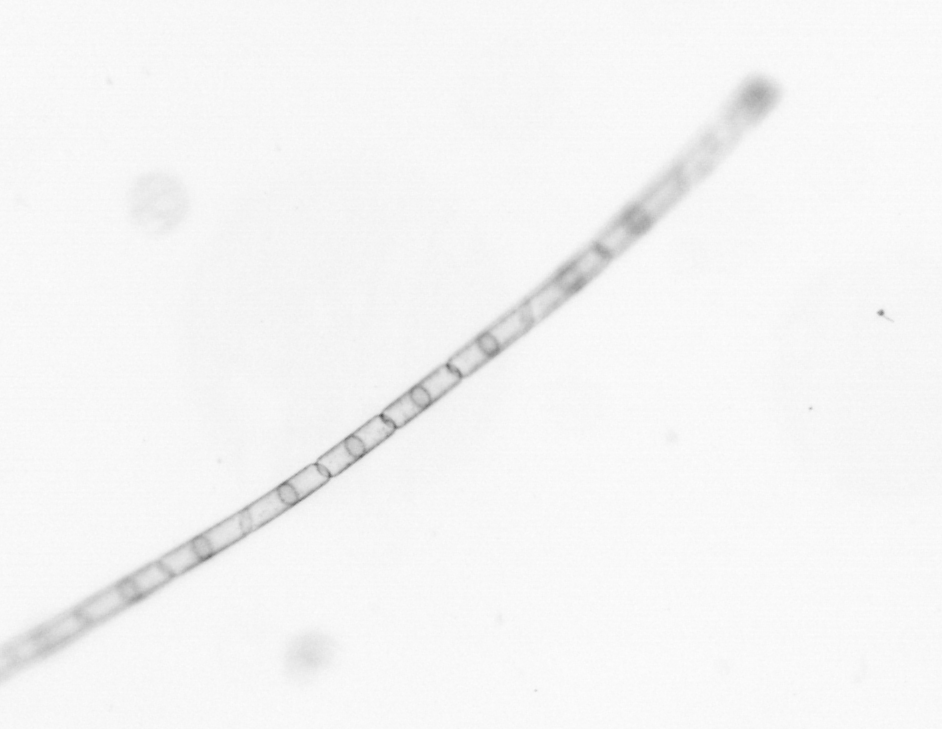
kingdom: Chromista
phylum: Ochrophyta
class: Bacillariophyceae
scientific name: Bacillariophyceae
